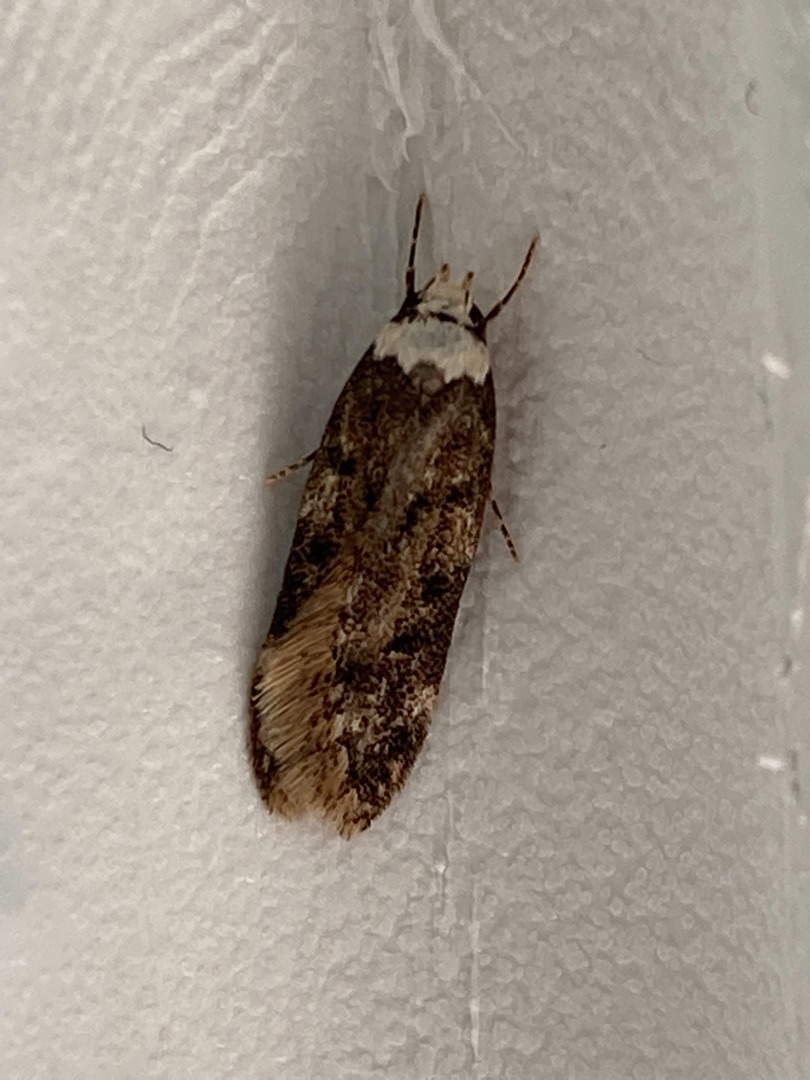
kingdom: Animalia
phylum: Arthropoda
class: Insecta
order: Lepidoptera
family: Oecophoridae
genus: Endrosis
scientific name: Endrosis sarcitrella
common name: Klistermøl
